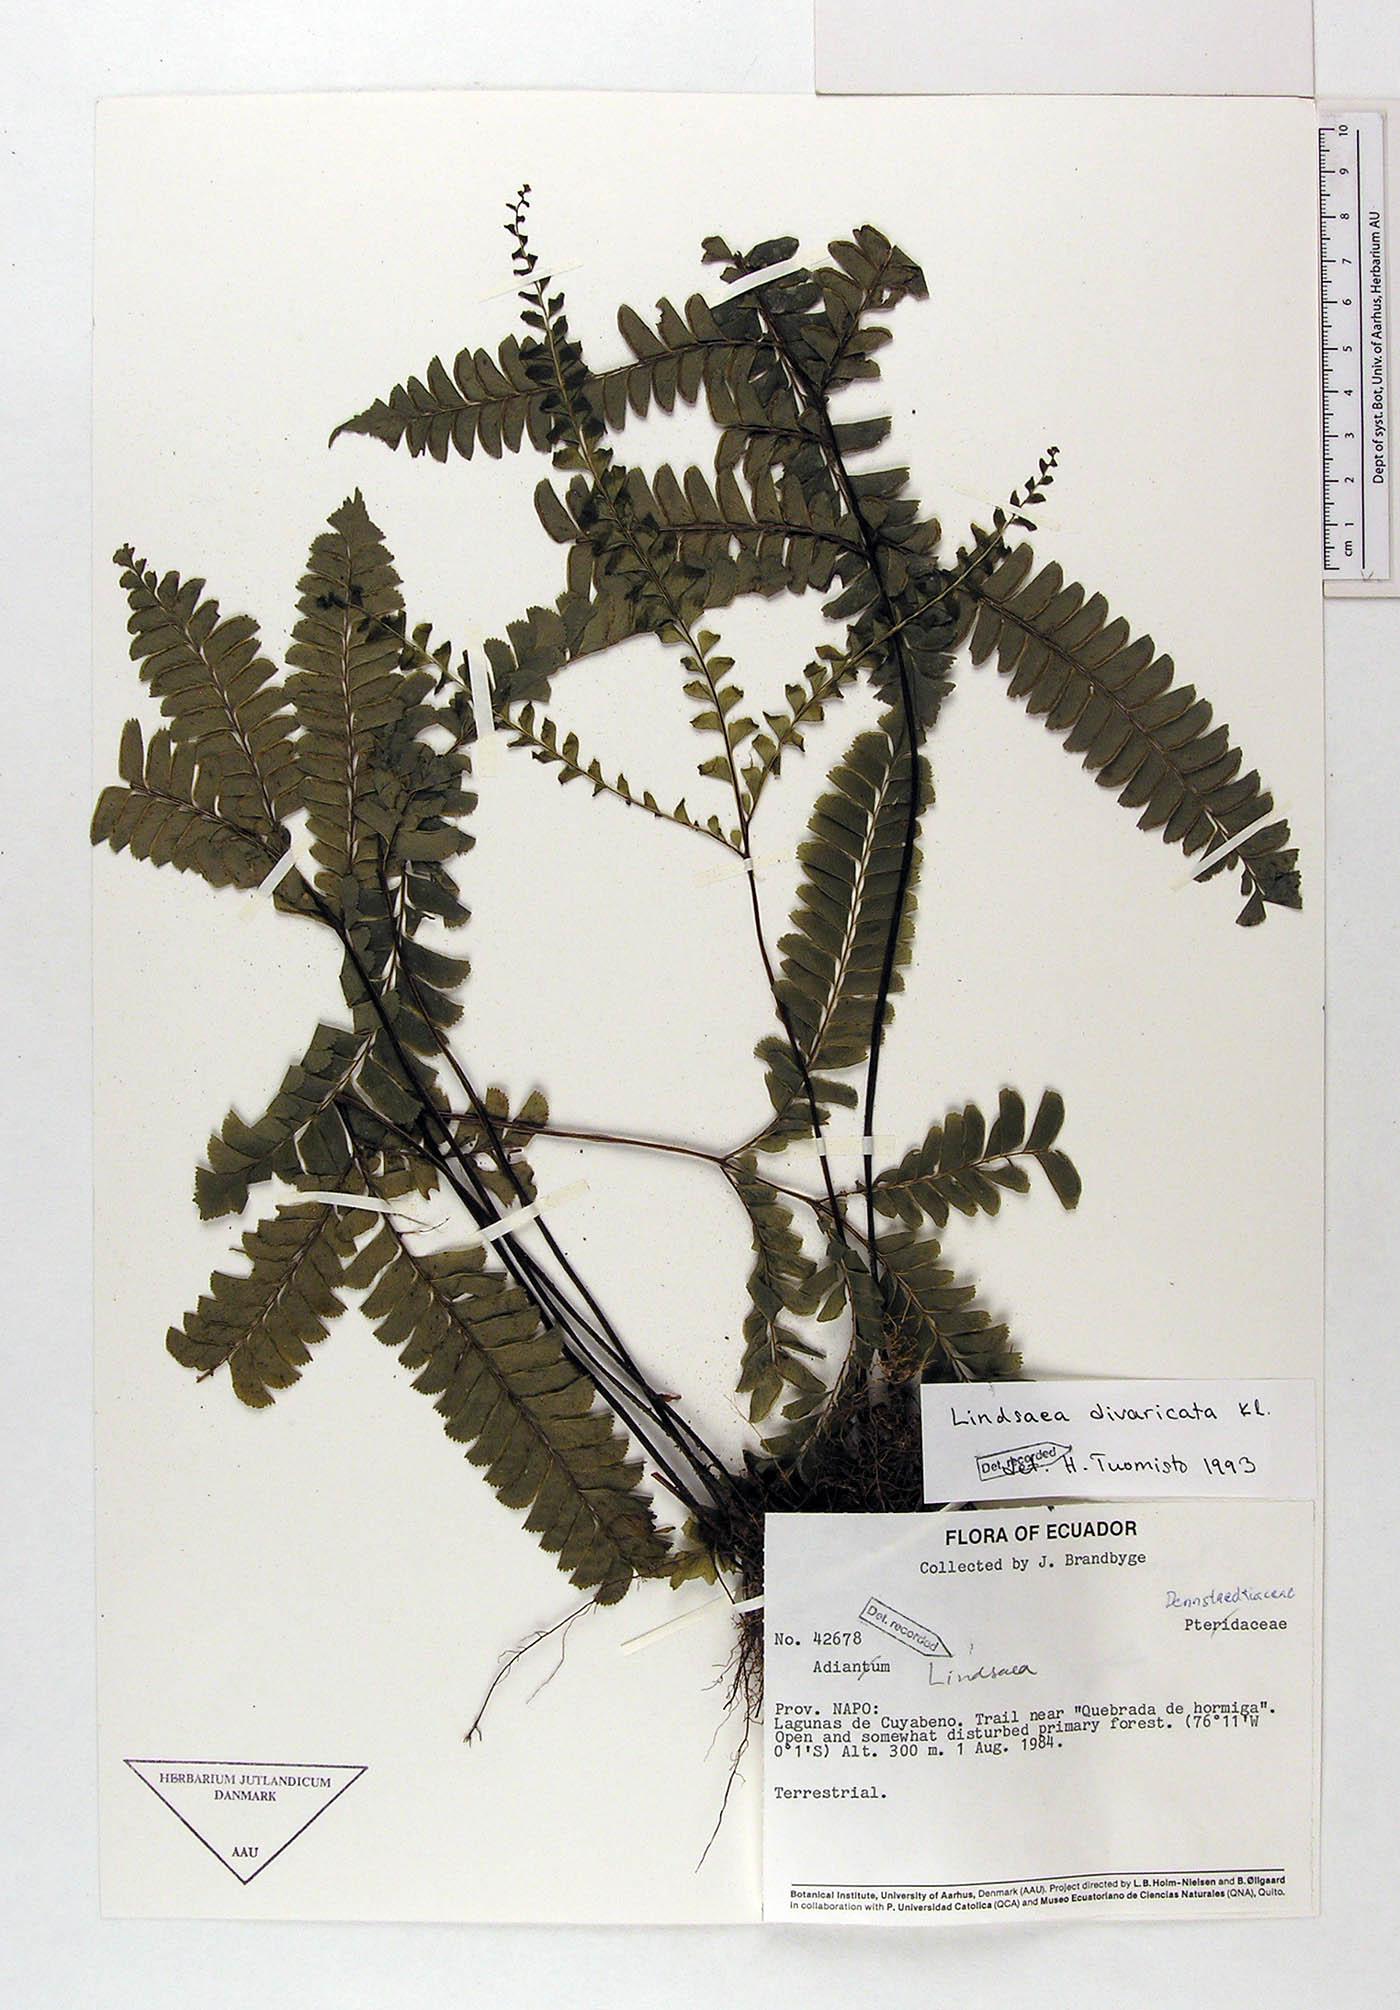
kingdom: Plantae
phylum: Tracheophyta
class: Polypodiopsida
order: Polypodiales
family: Lindsaeaceae
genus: Lindsaea
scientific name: Lindsaea divaricata
